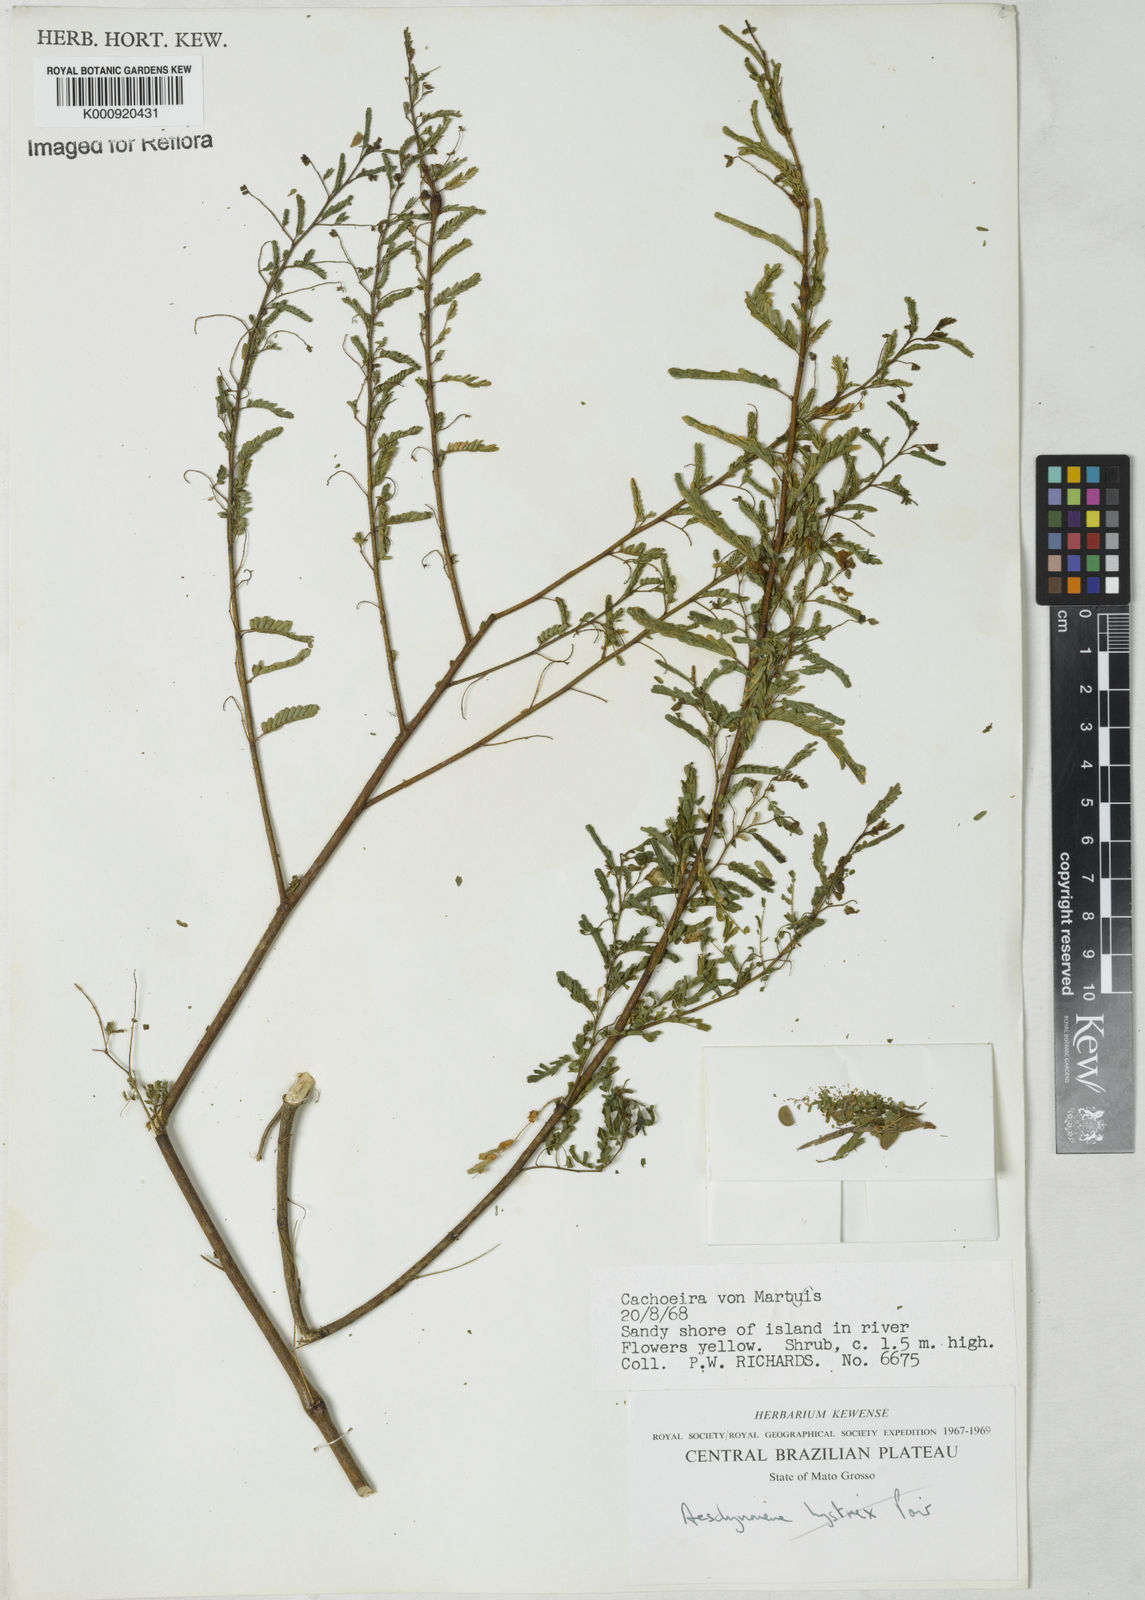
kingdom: Plantae
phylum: Tracheophyta
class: Magnoliopsida
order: Fabales
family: Fabaceae
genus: Aeschynomene
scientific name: Aeschynomene
